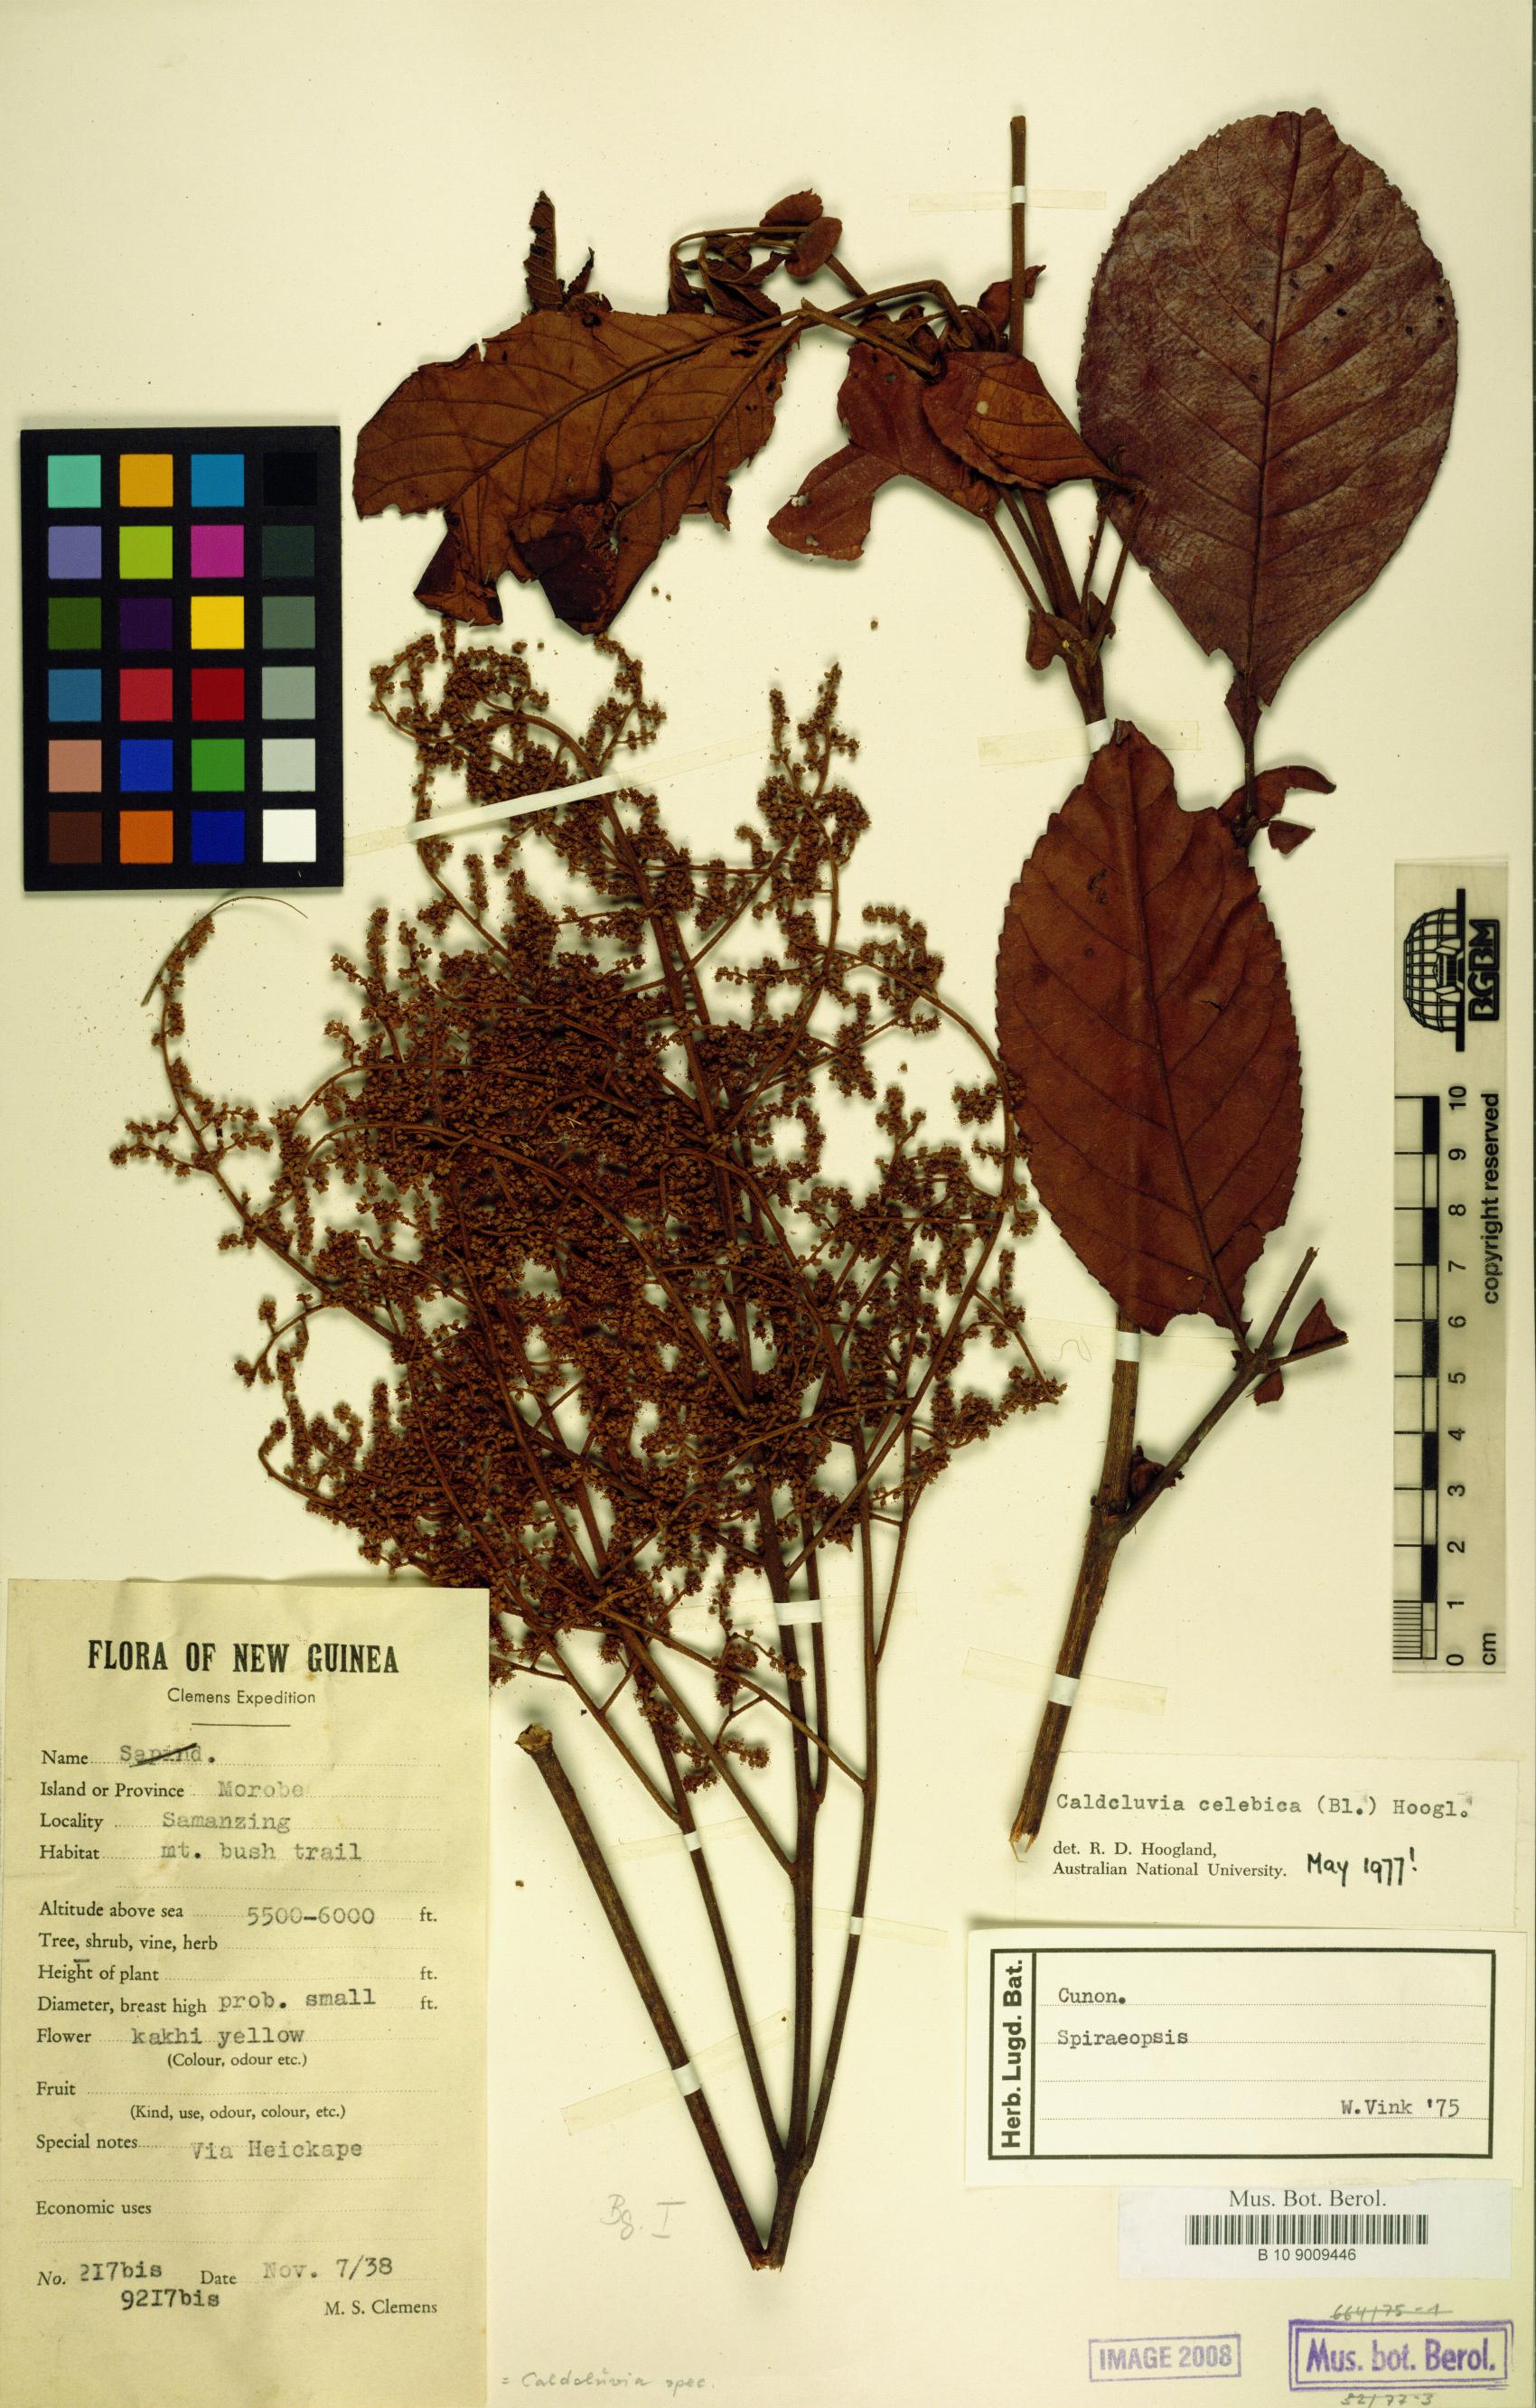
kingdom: Plantae
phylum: Tracheophyta
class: Magnoliopsida
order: Oxalidales
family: Cunoniaceae
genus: Ackama
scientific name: Ackama celebica
